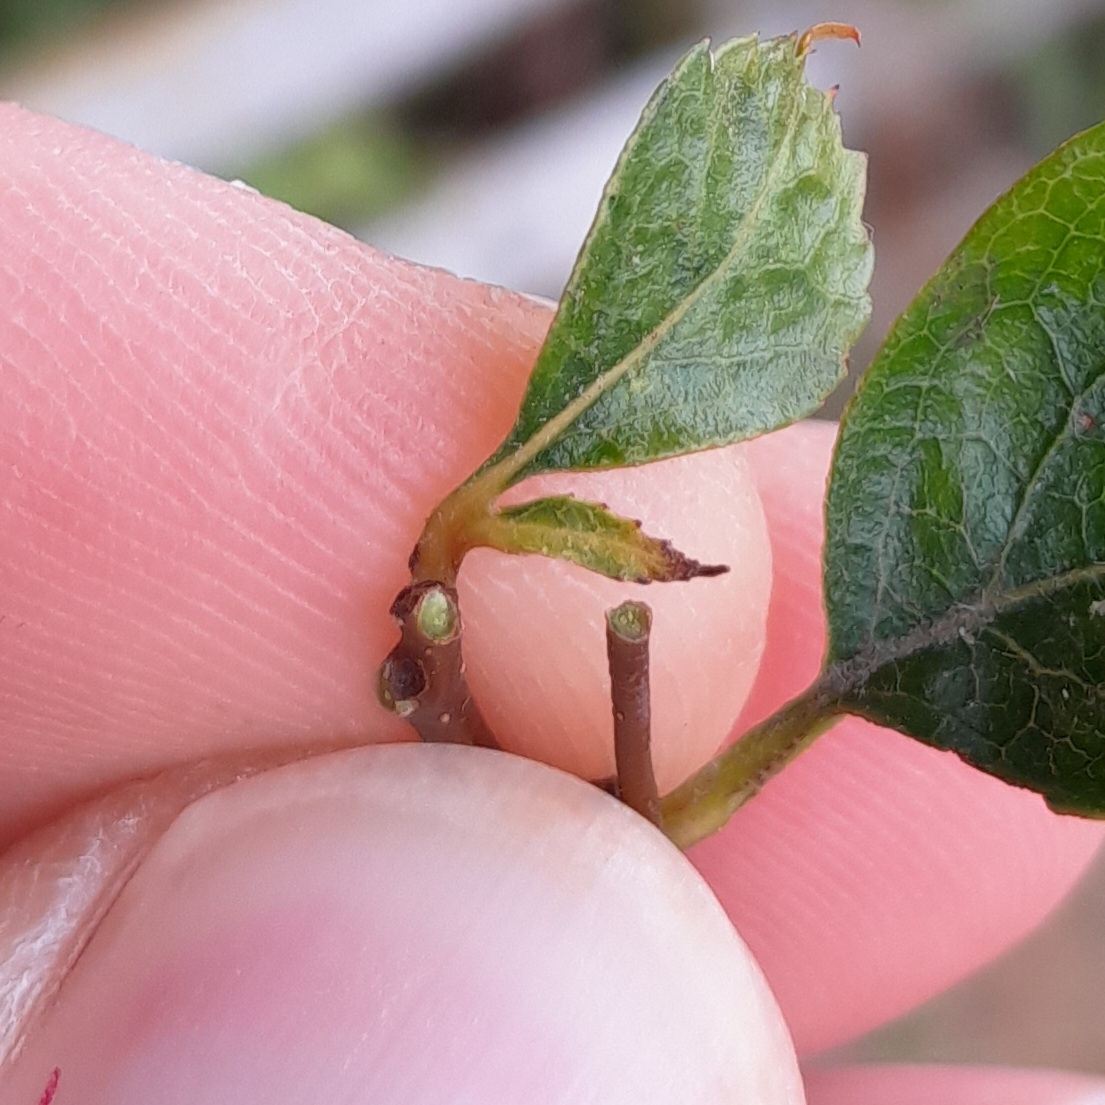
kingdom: Plantae
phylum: Tracheophyta
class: Magnoliopsida
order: Rosales
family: Rosaceae
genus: Crataegus
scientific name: Crataegus laevigata
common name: Almindelig hvidtjørn
